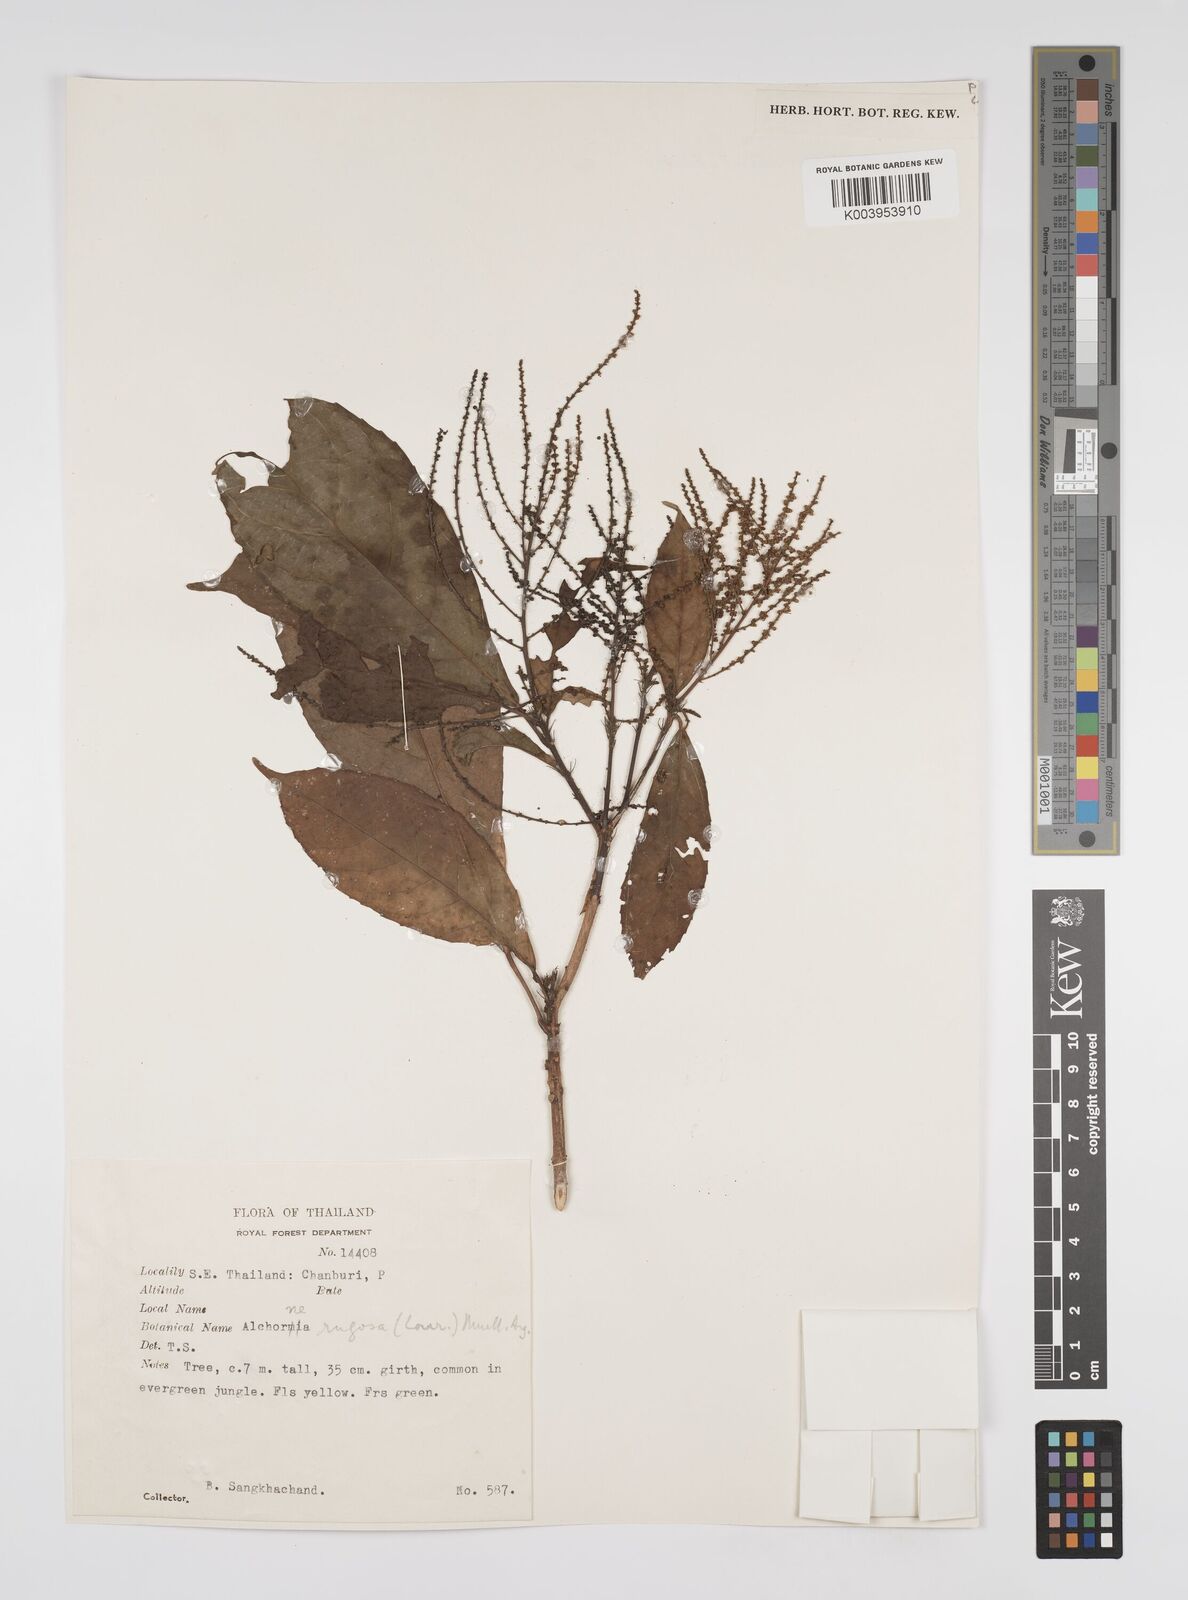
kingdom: Plantae
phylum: Tracheophyta
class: Magnoliopsida
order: Malpighiales
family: Euphorbiaceae
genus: Alchornea
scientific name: Alchornea rugosa
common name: Alchorntree
